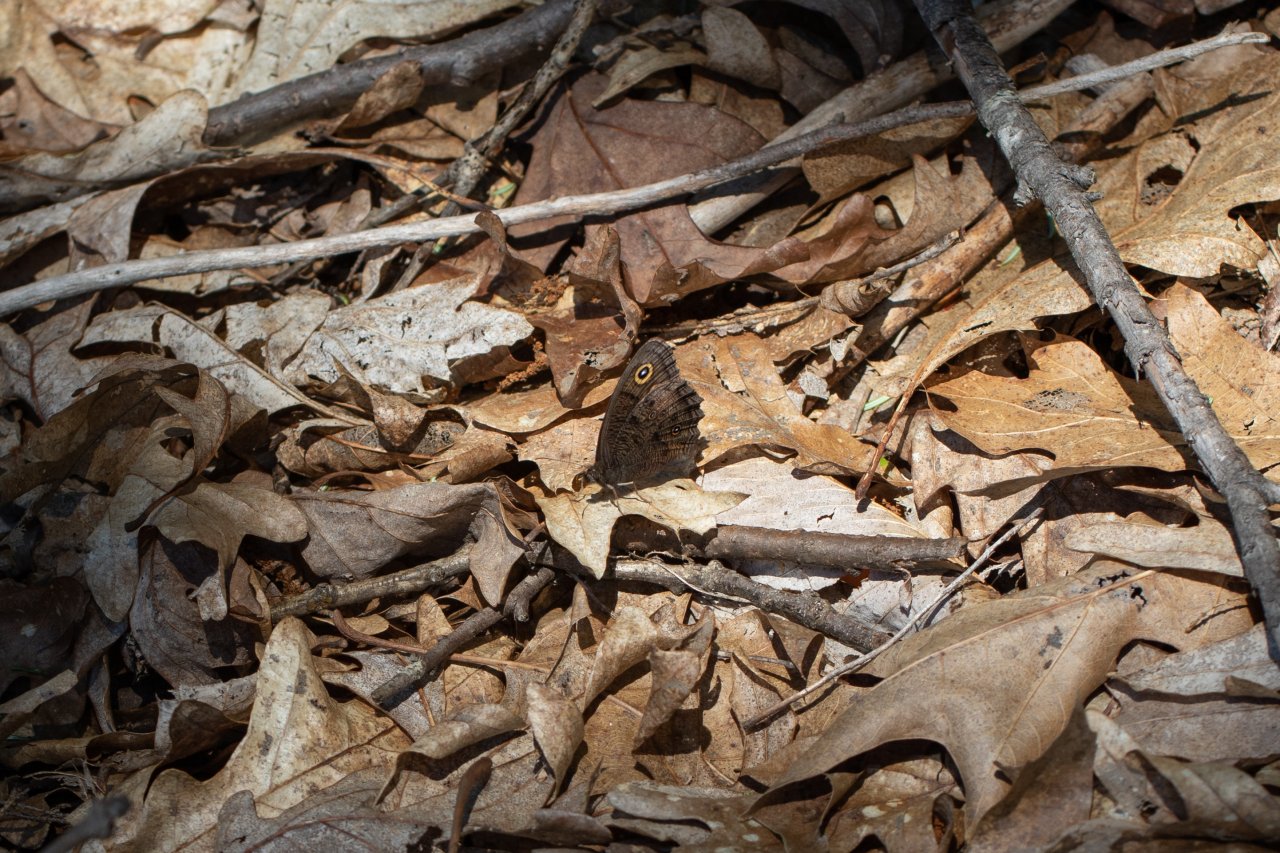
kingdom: Animalia
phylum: Arthropoda
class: Insecta
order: Lepidoptera
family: Nymphalidae
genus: Cercyonis
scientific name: Cercyonis pegala
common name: Common Wood-Nymph
